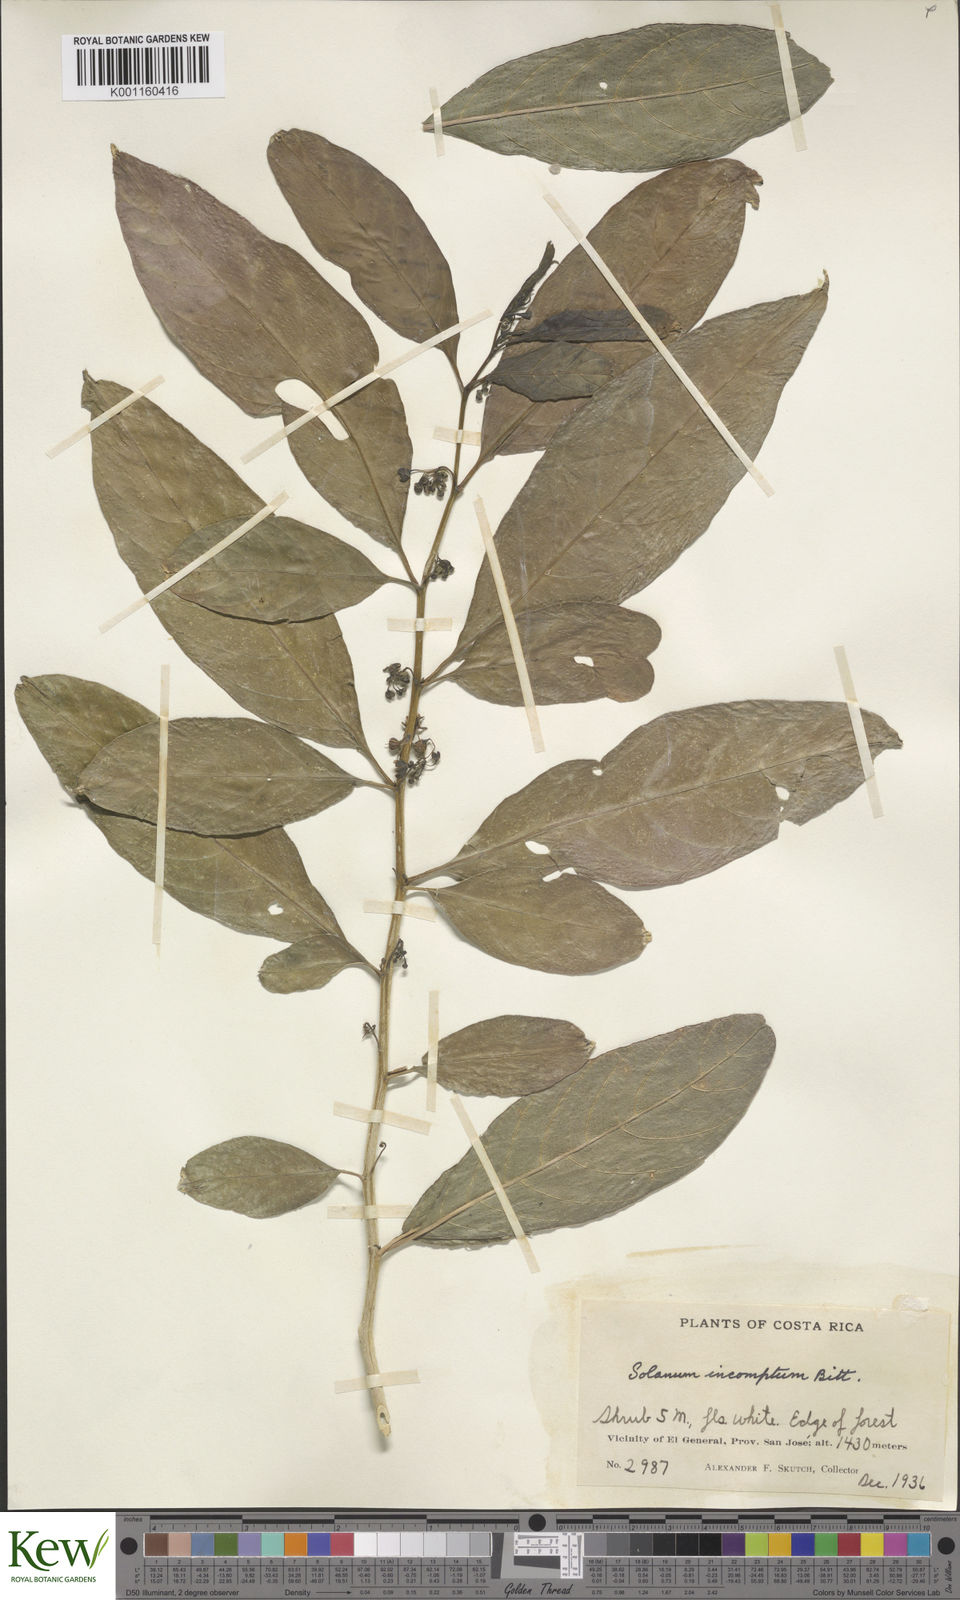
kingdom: Plantae
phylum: Tracheophyta
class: Magnoliopsida
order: Solanales
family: Solanaceae
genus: Solanum
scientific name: Solanum incomptum
